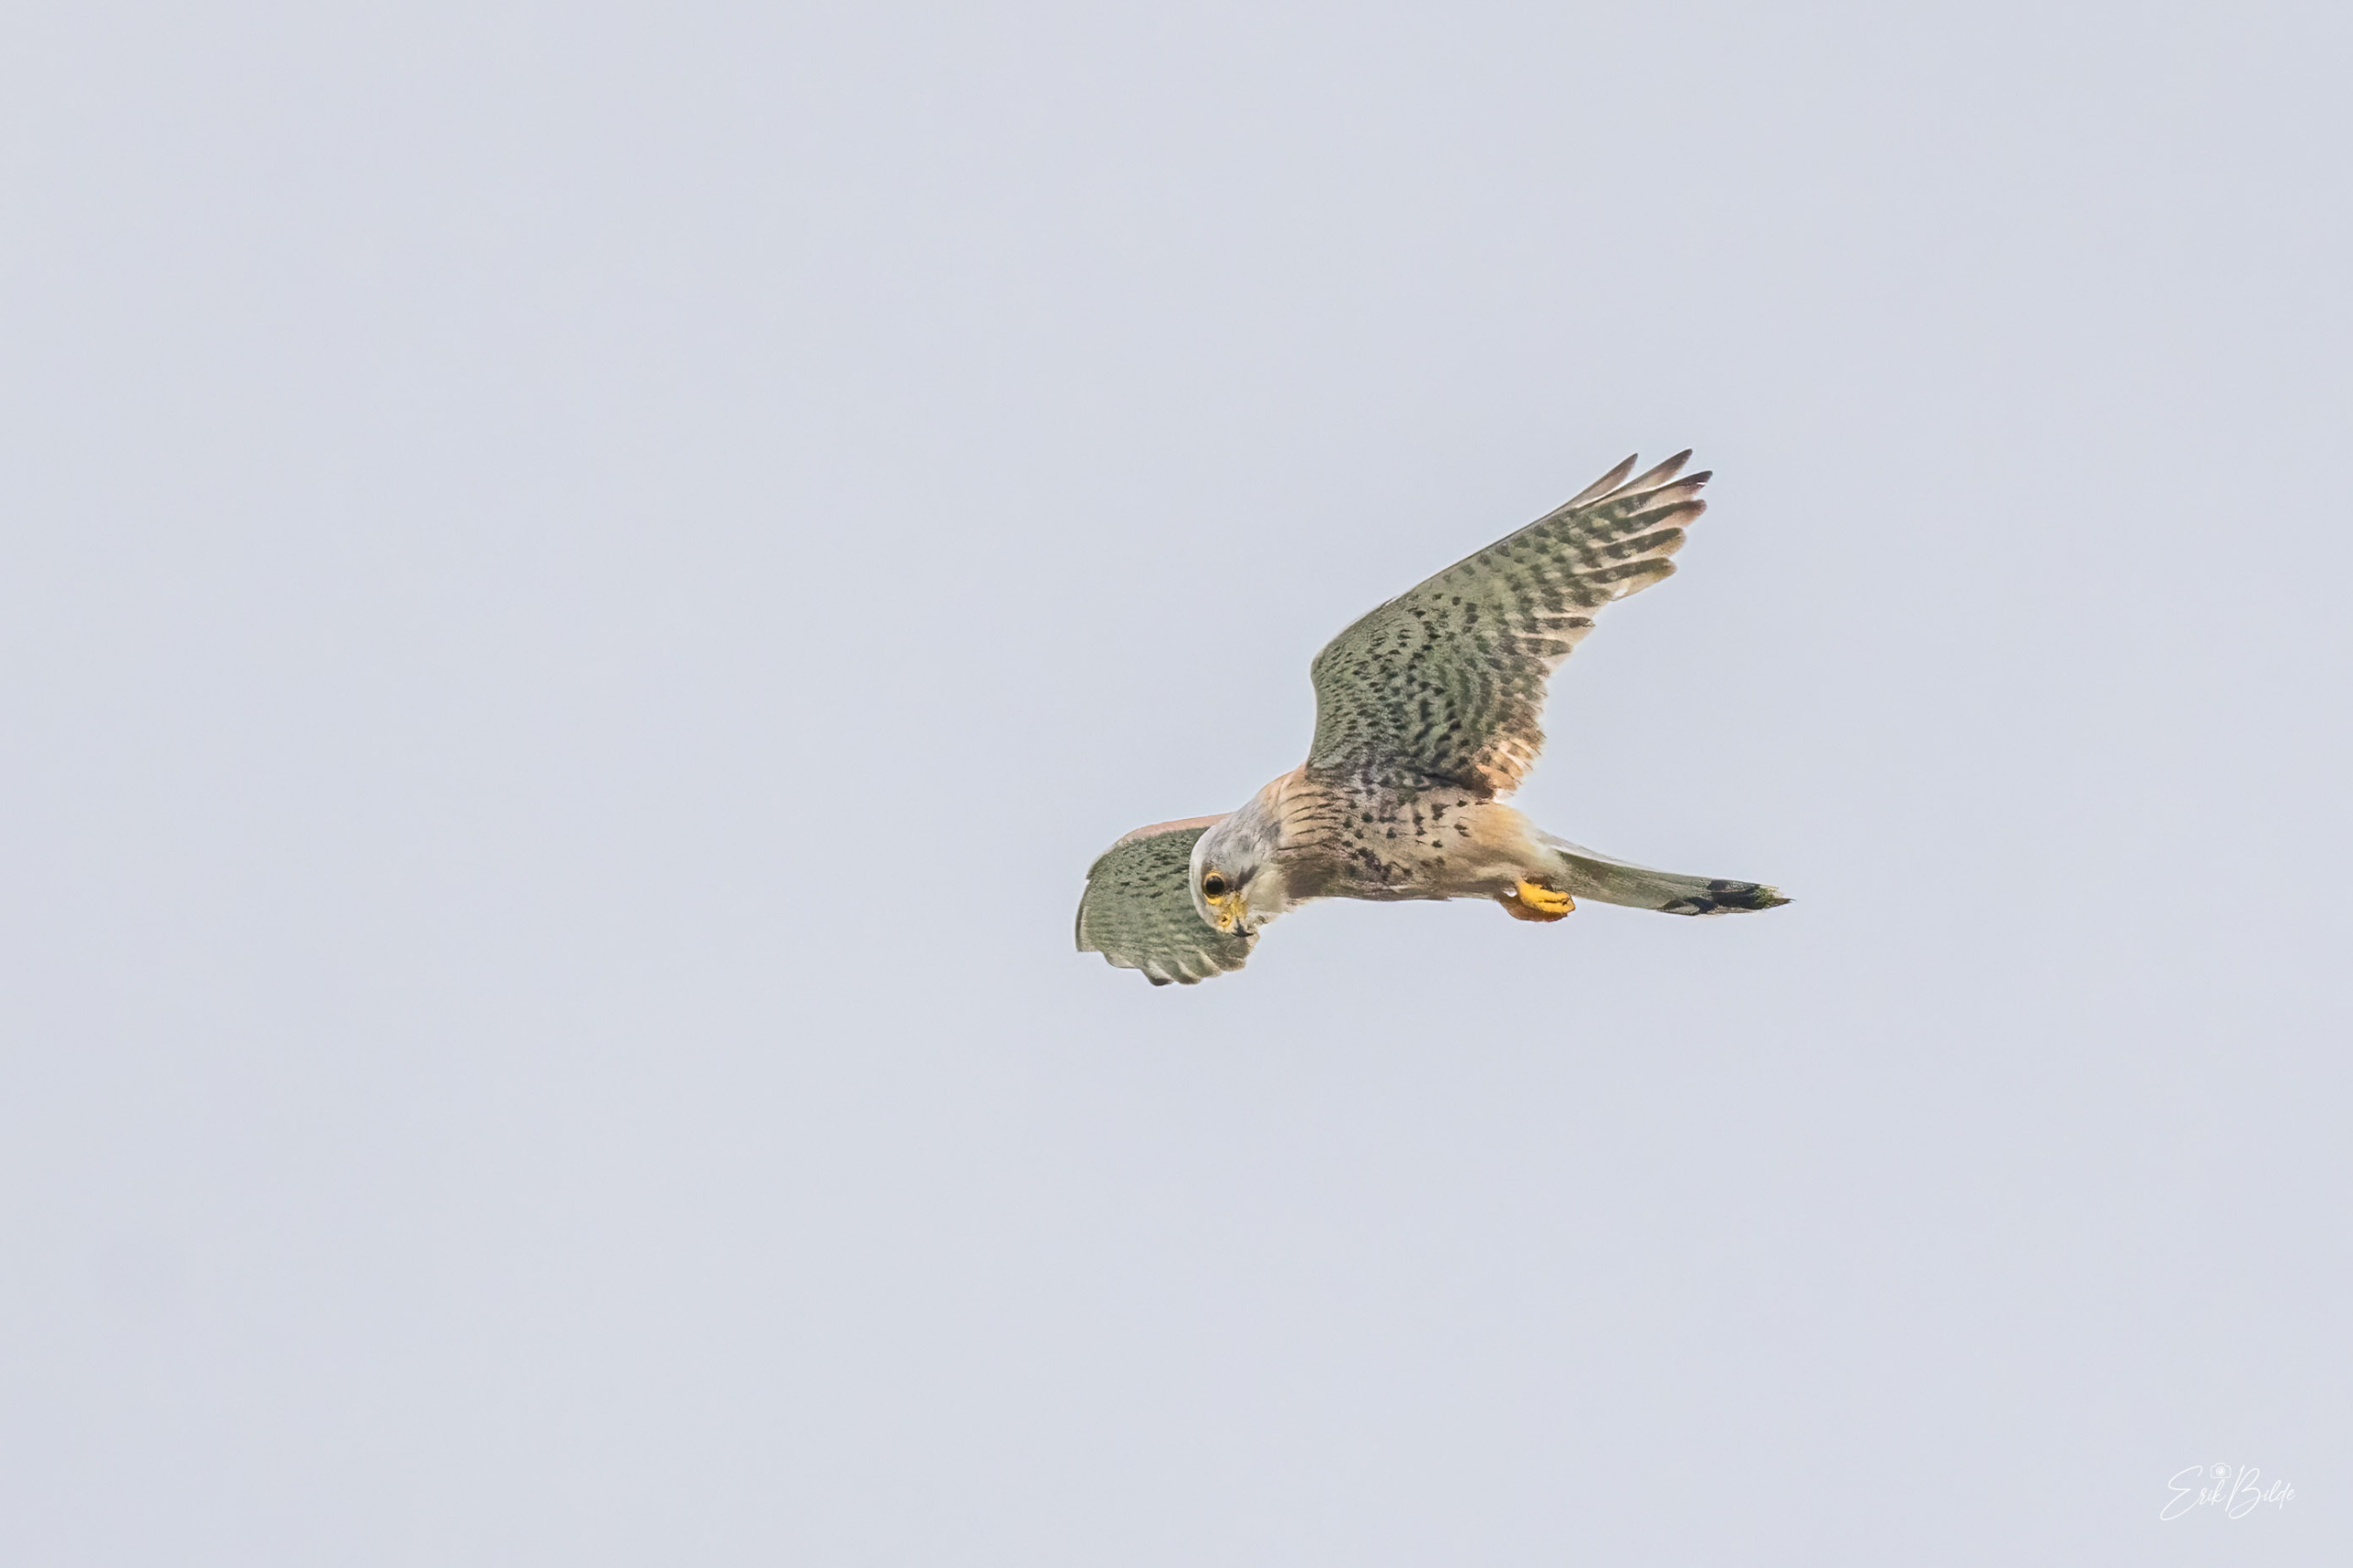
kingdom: Animalia
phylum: Chordata
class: Aves
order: Falconiformes
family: Falconidae
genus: Falco
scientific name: Falco tinnunculus
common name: Tårnfalk
